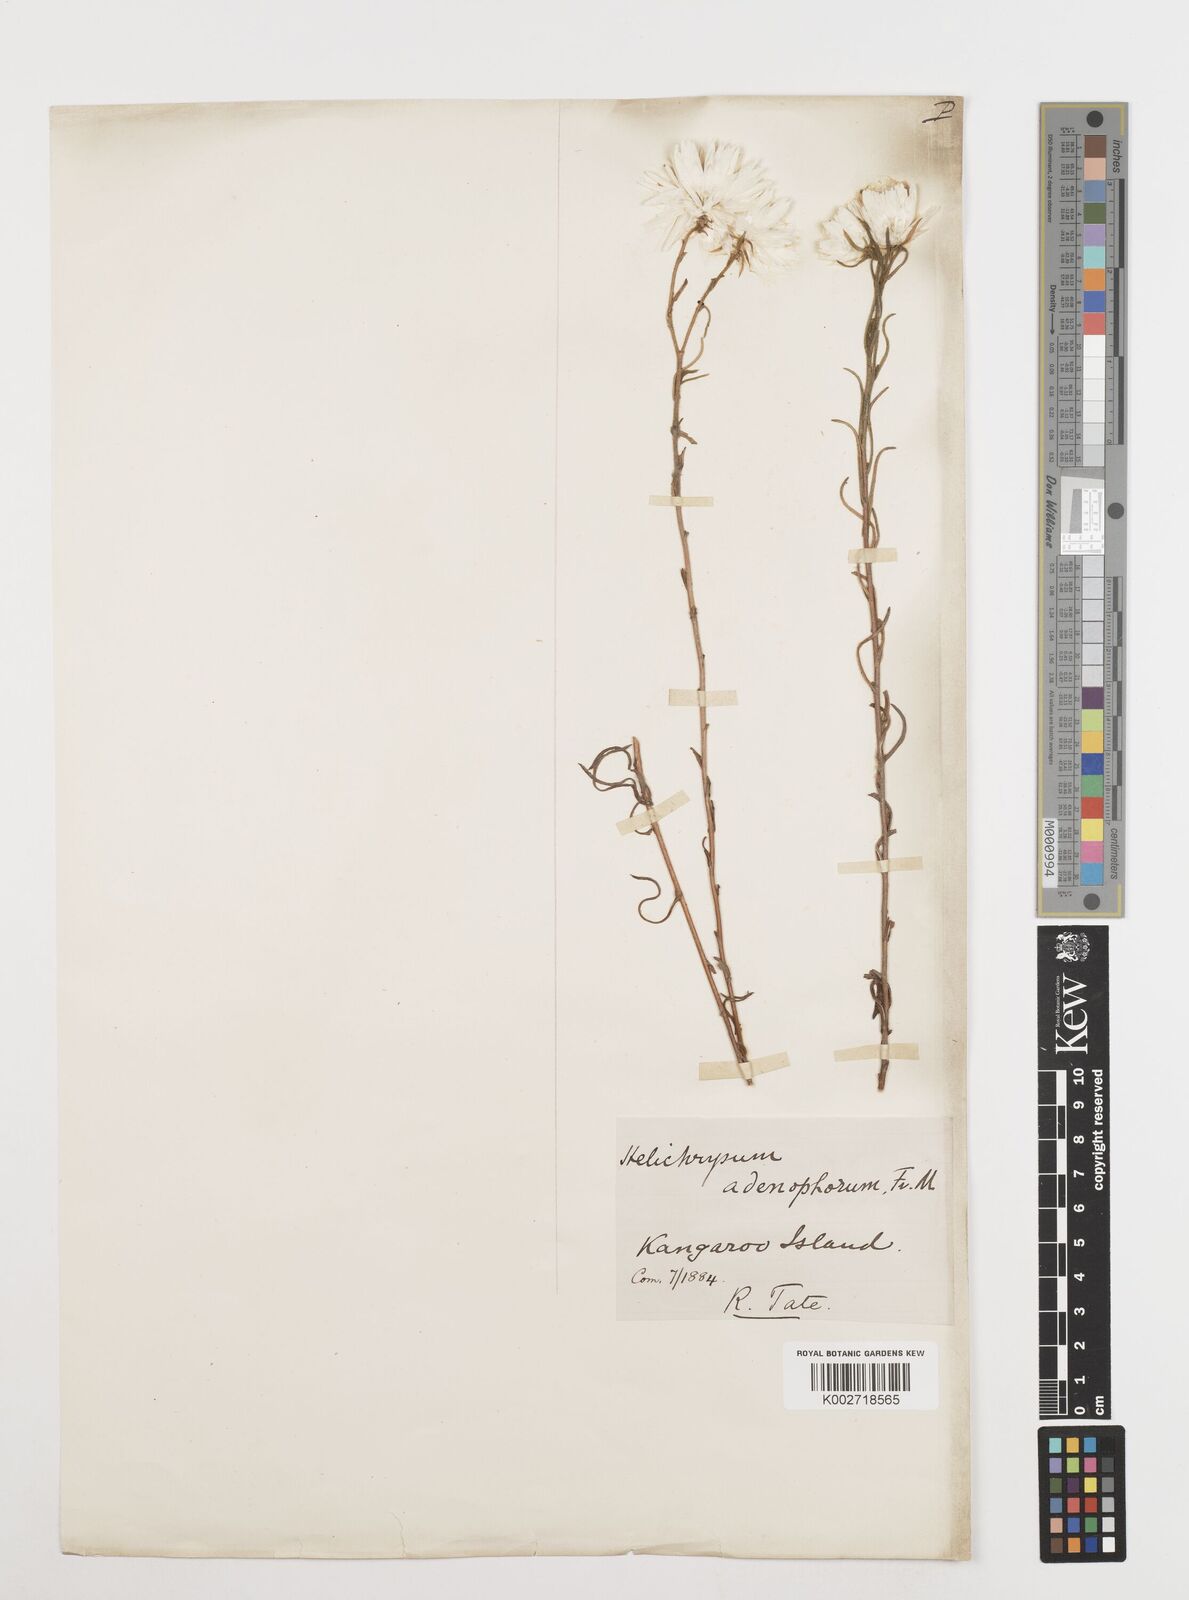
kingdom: Plantae
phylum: Tracheophyta
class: Magnoliopsida
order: Asterales
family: Asteraceae
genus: Coronidium
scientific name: Coronidium adenophorum
